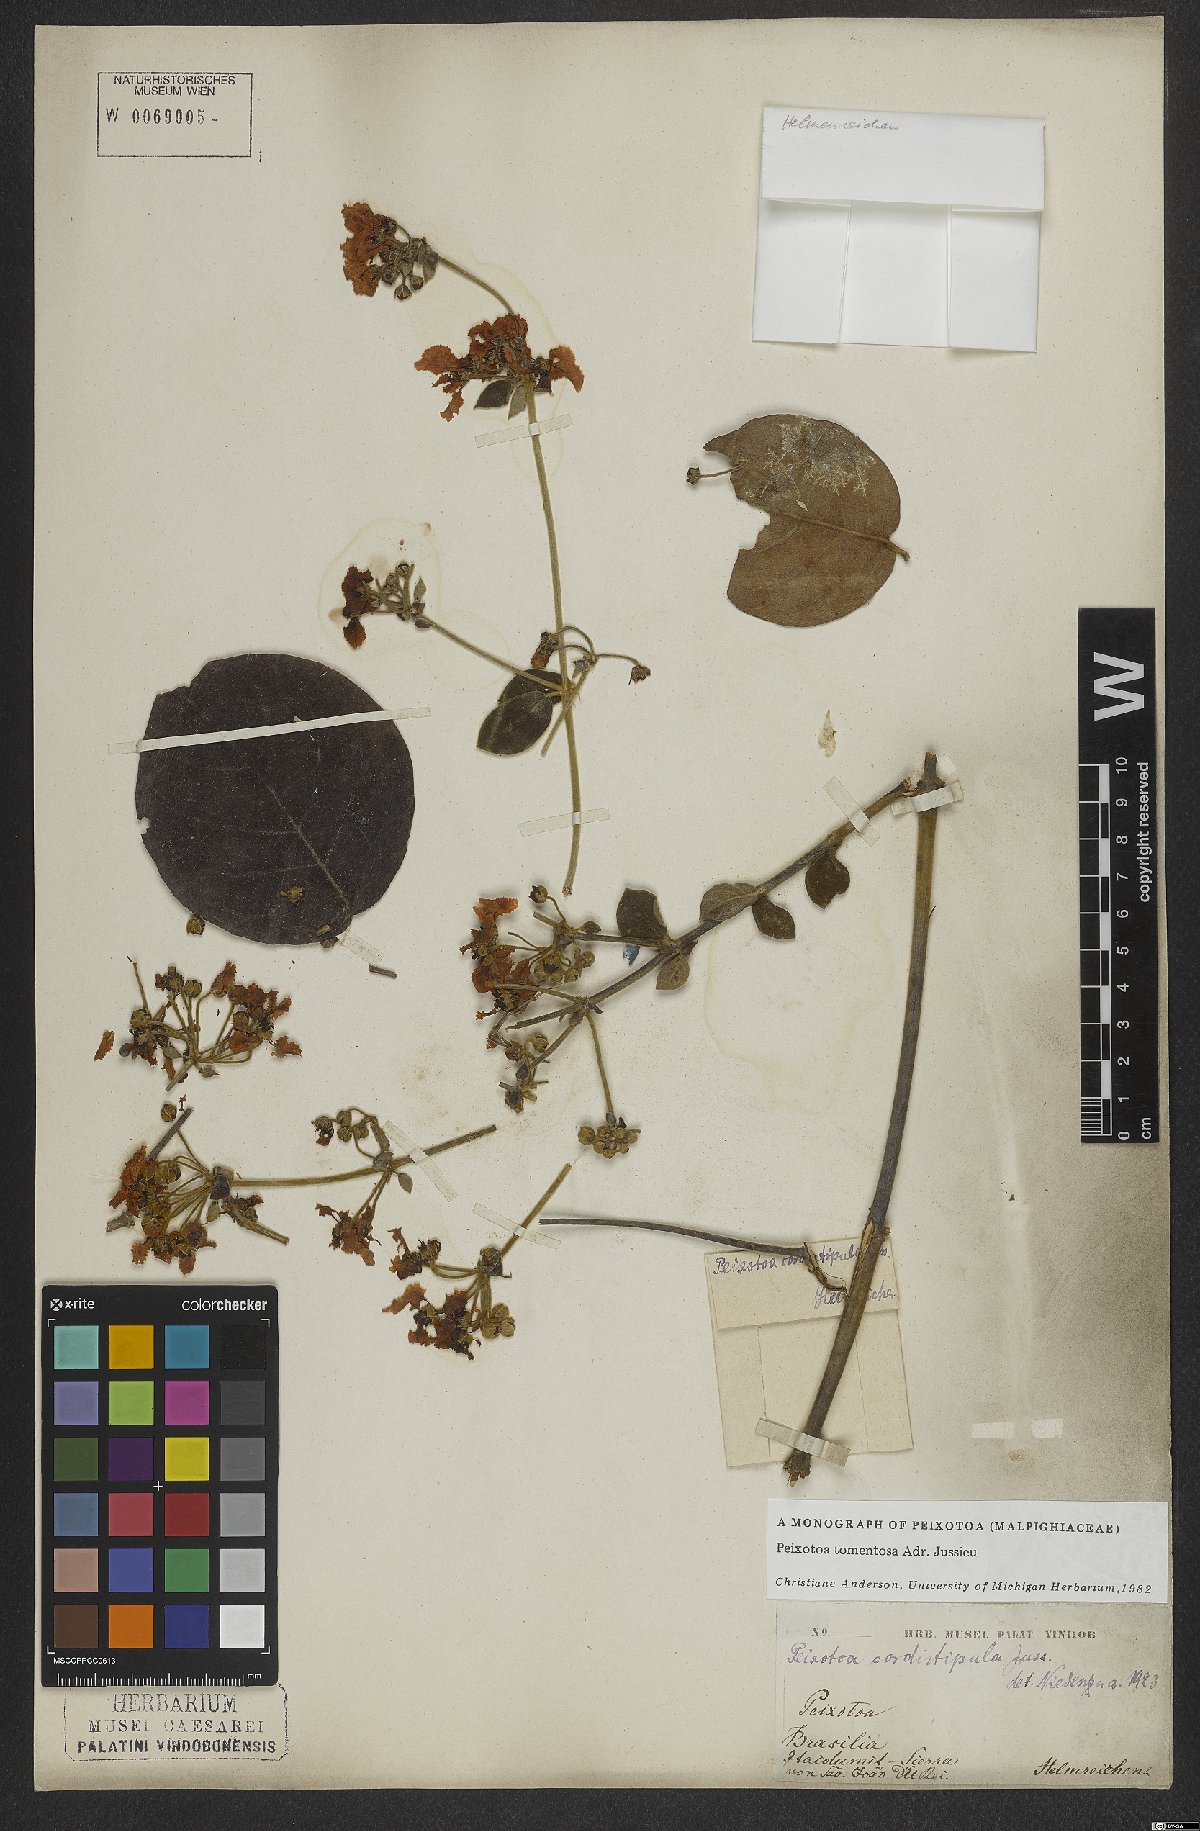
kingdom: Plantae
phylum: Tracheophyta
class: Magnoliopsida
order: Malpighiales
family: Malpighiaceae
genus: Peixotoa
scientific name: Peixotoa tomentosa
